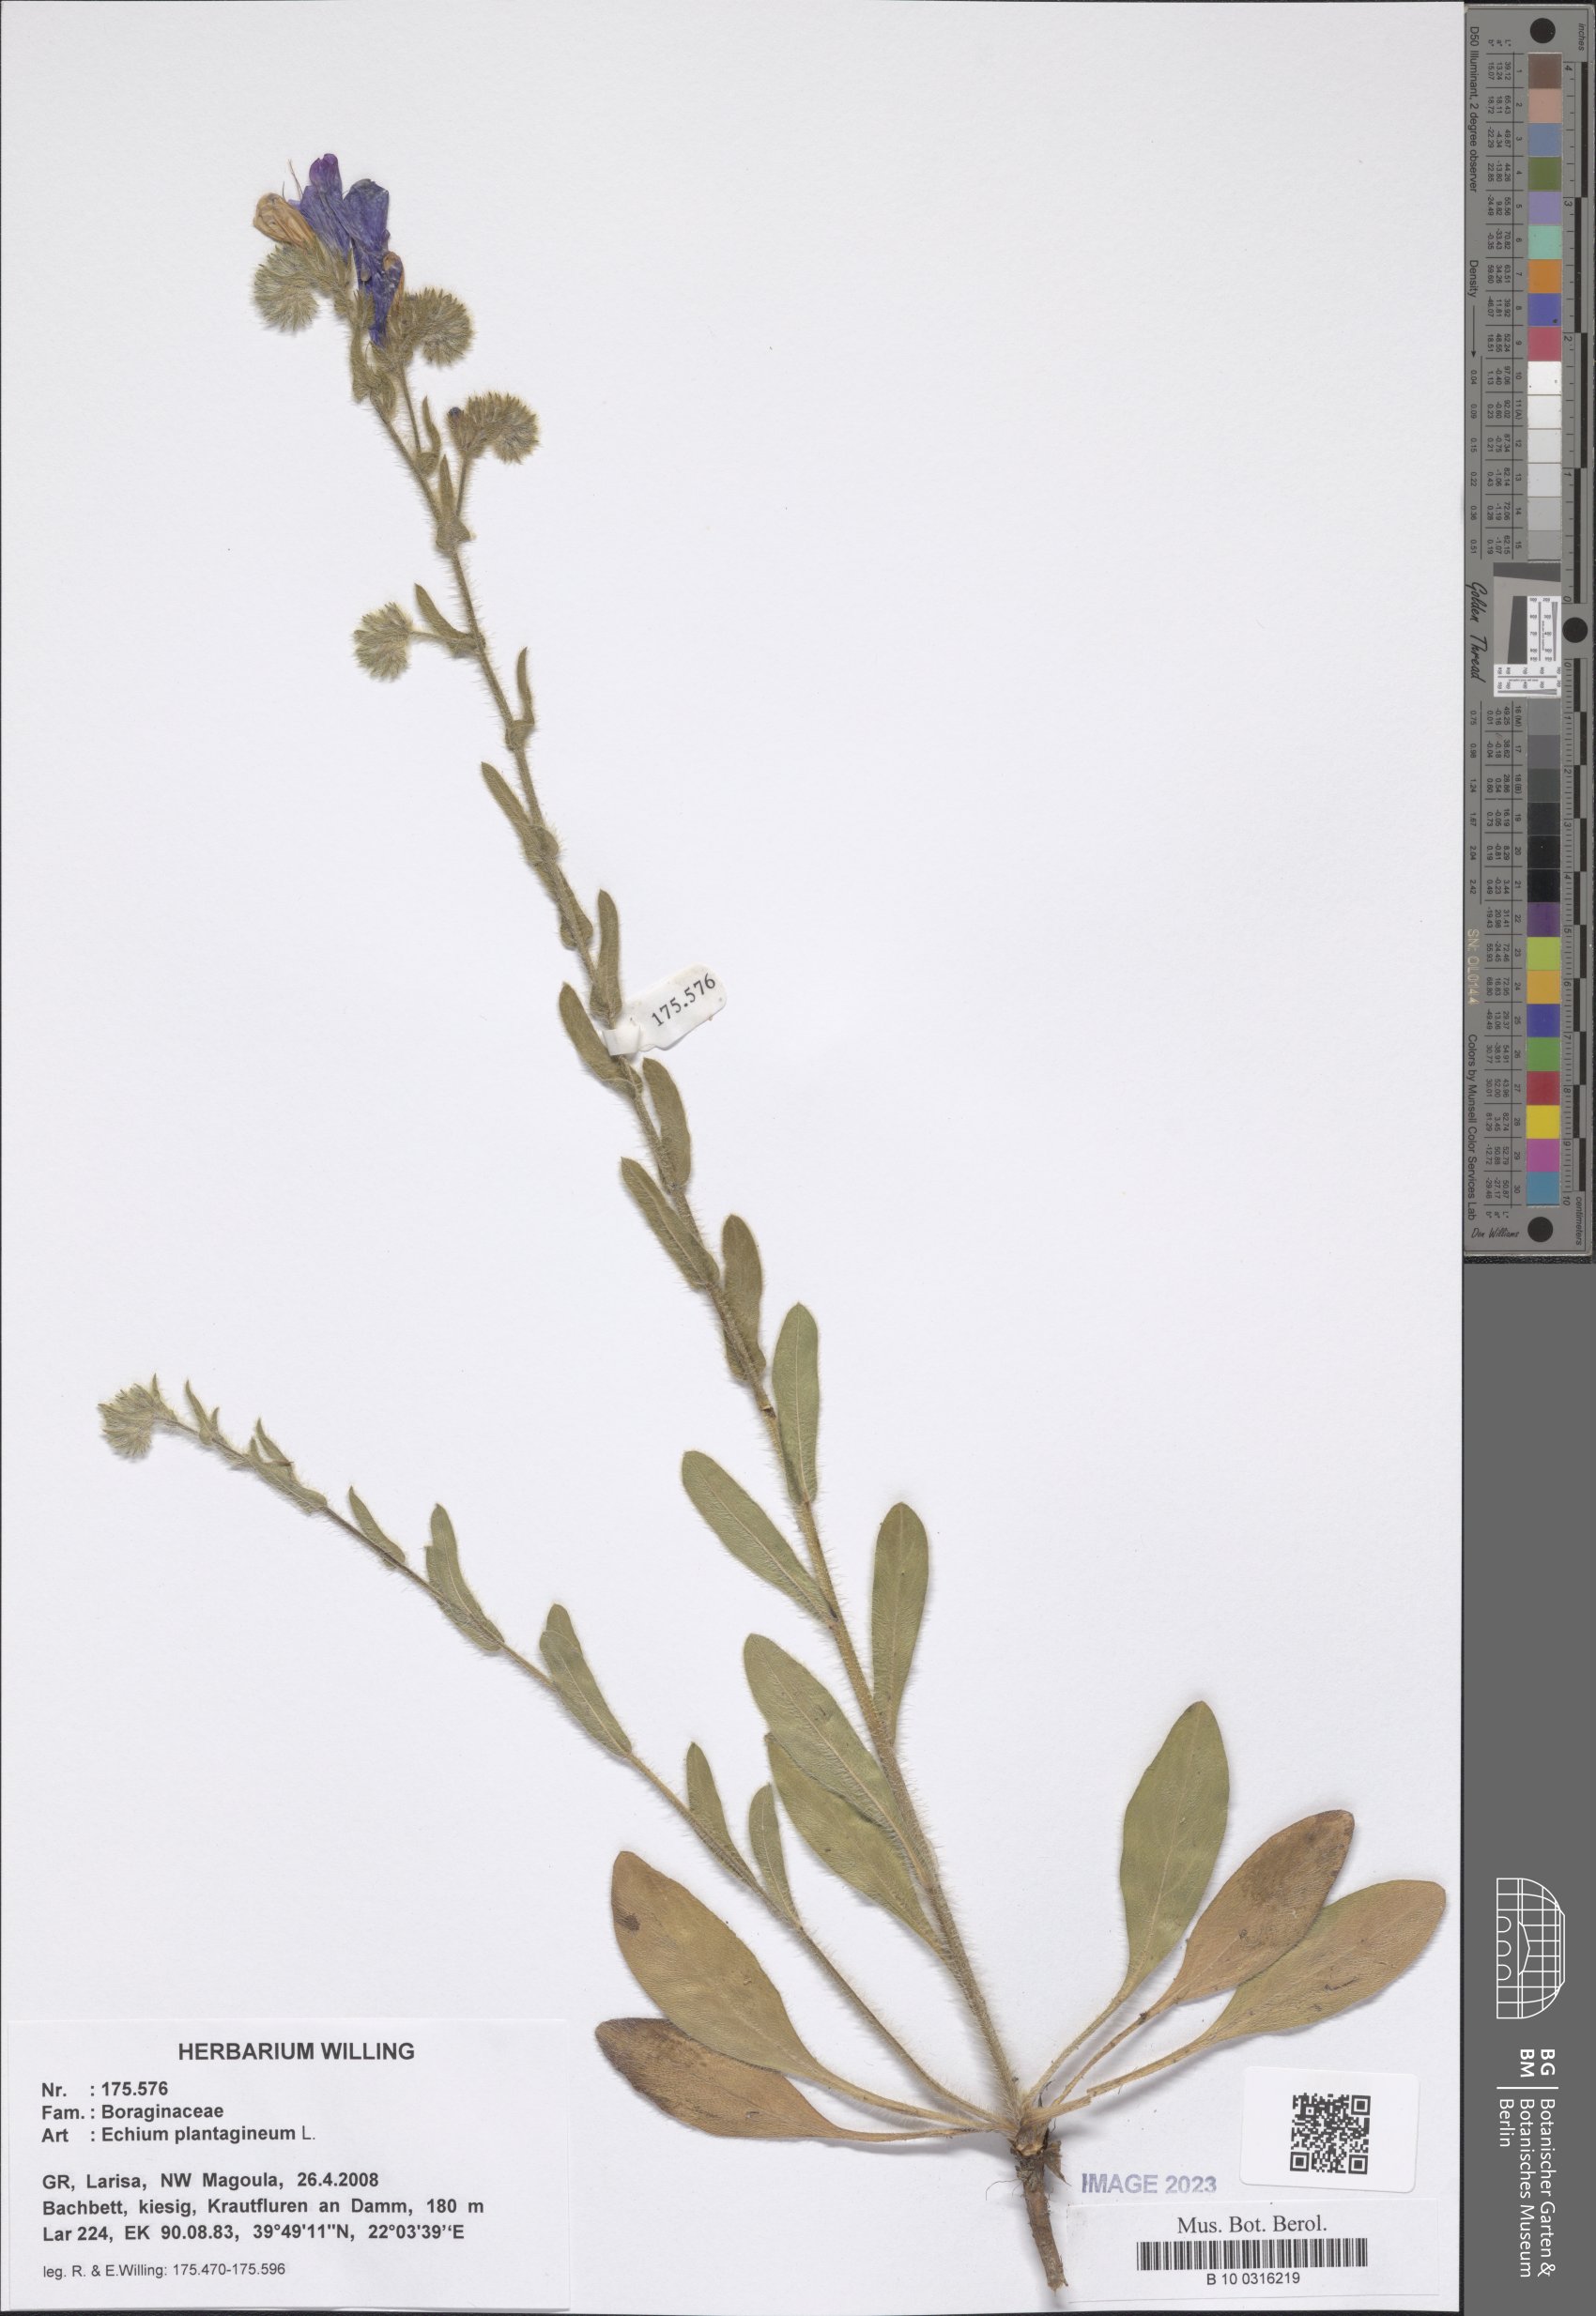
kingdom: Plantae
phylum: Tracheophyta
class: Magnoliopsida
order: Boraginales
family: Boraginaceae
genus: Echium
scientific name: Echium plantagineum
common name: Purple viper's-bugloss
